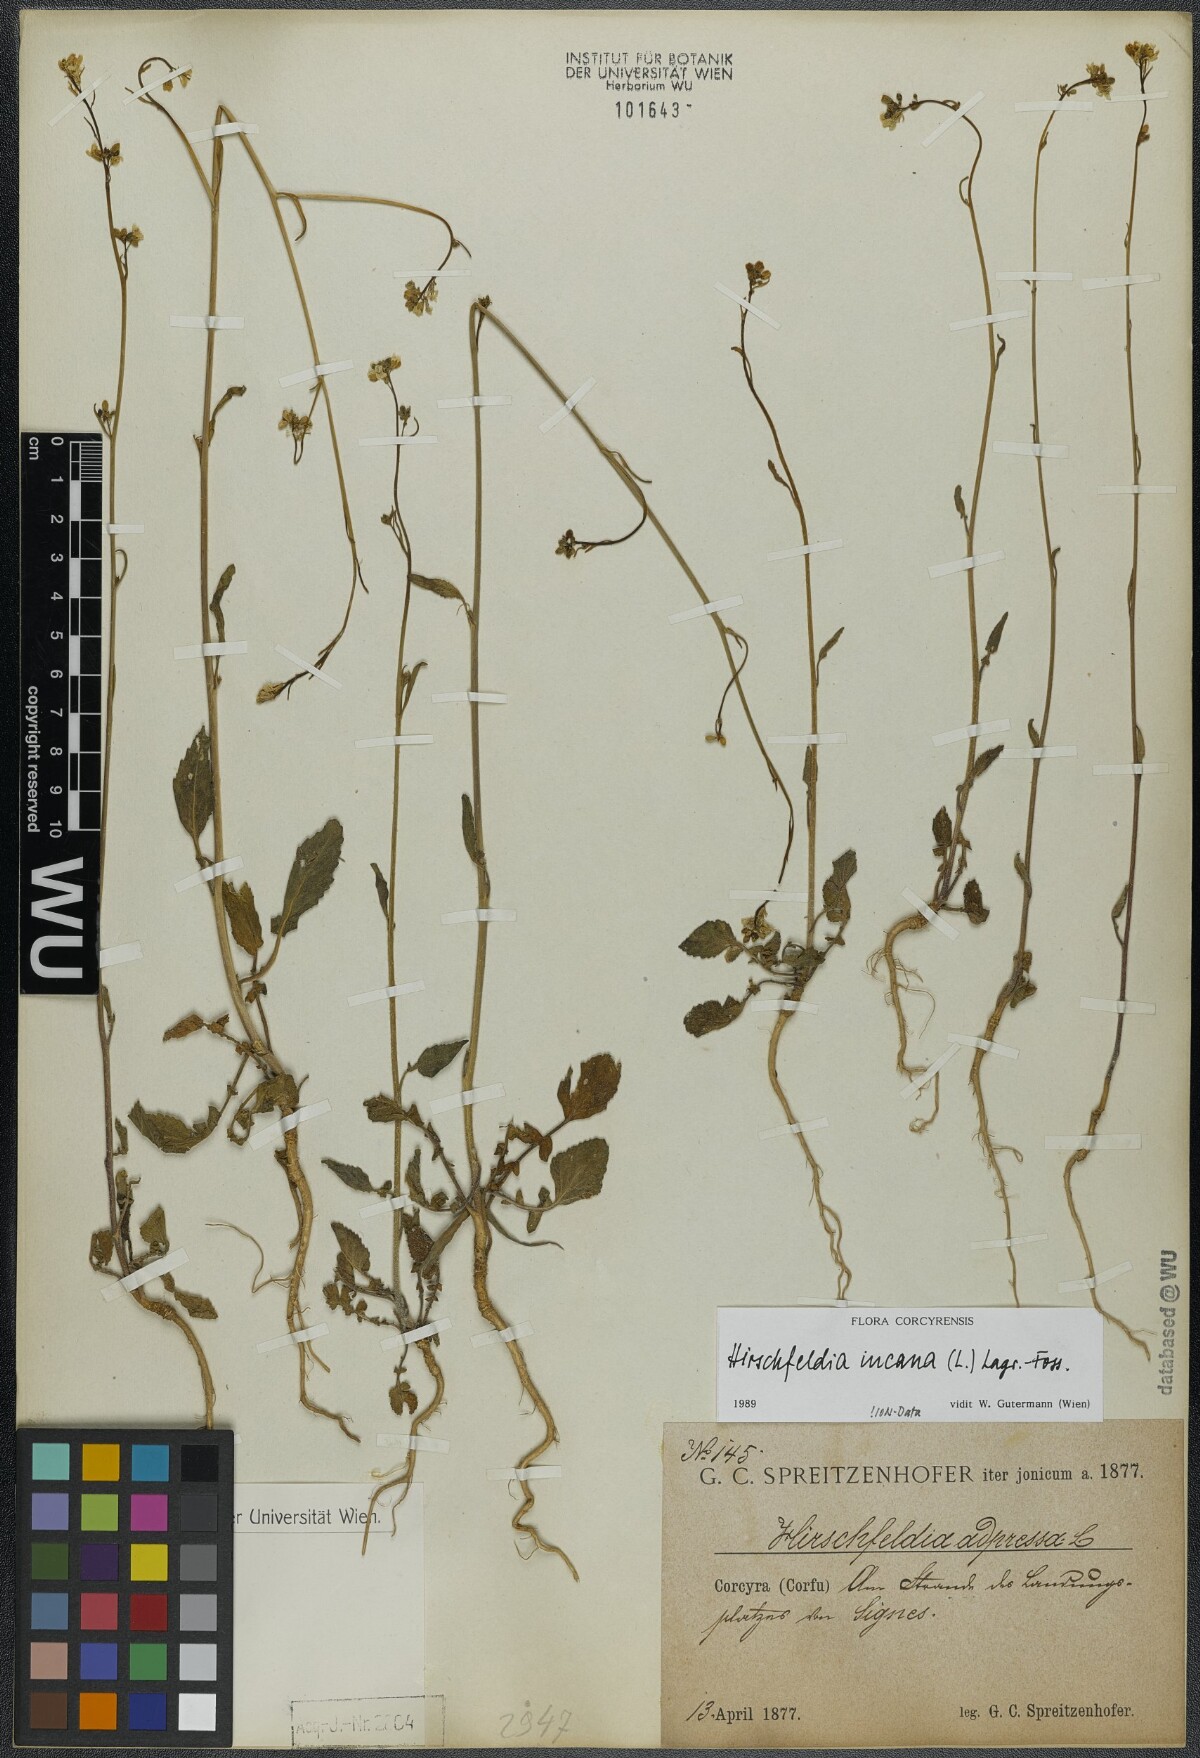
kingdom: Plantae
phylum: Tracheophyta
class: Magnoliopsida
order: Brassicales
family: Brassicaceae
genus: Hirschfeldia
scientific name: Hirschfeldia incana
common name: Hoary mustard
